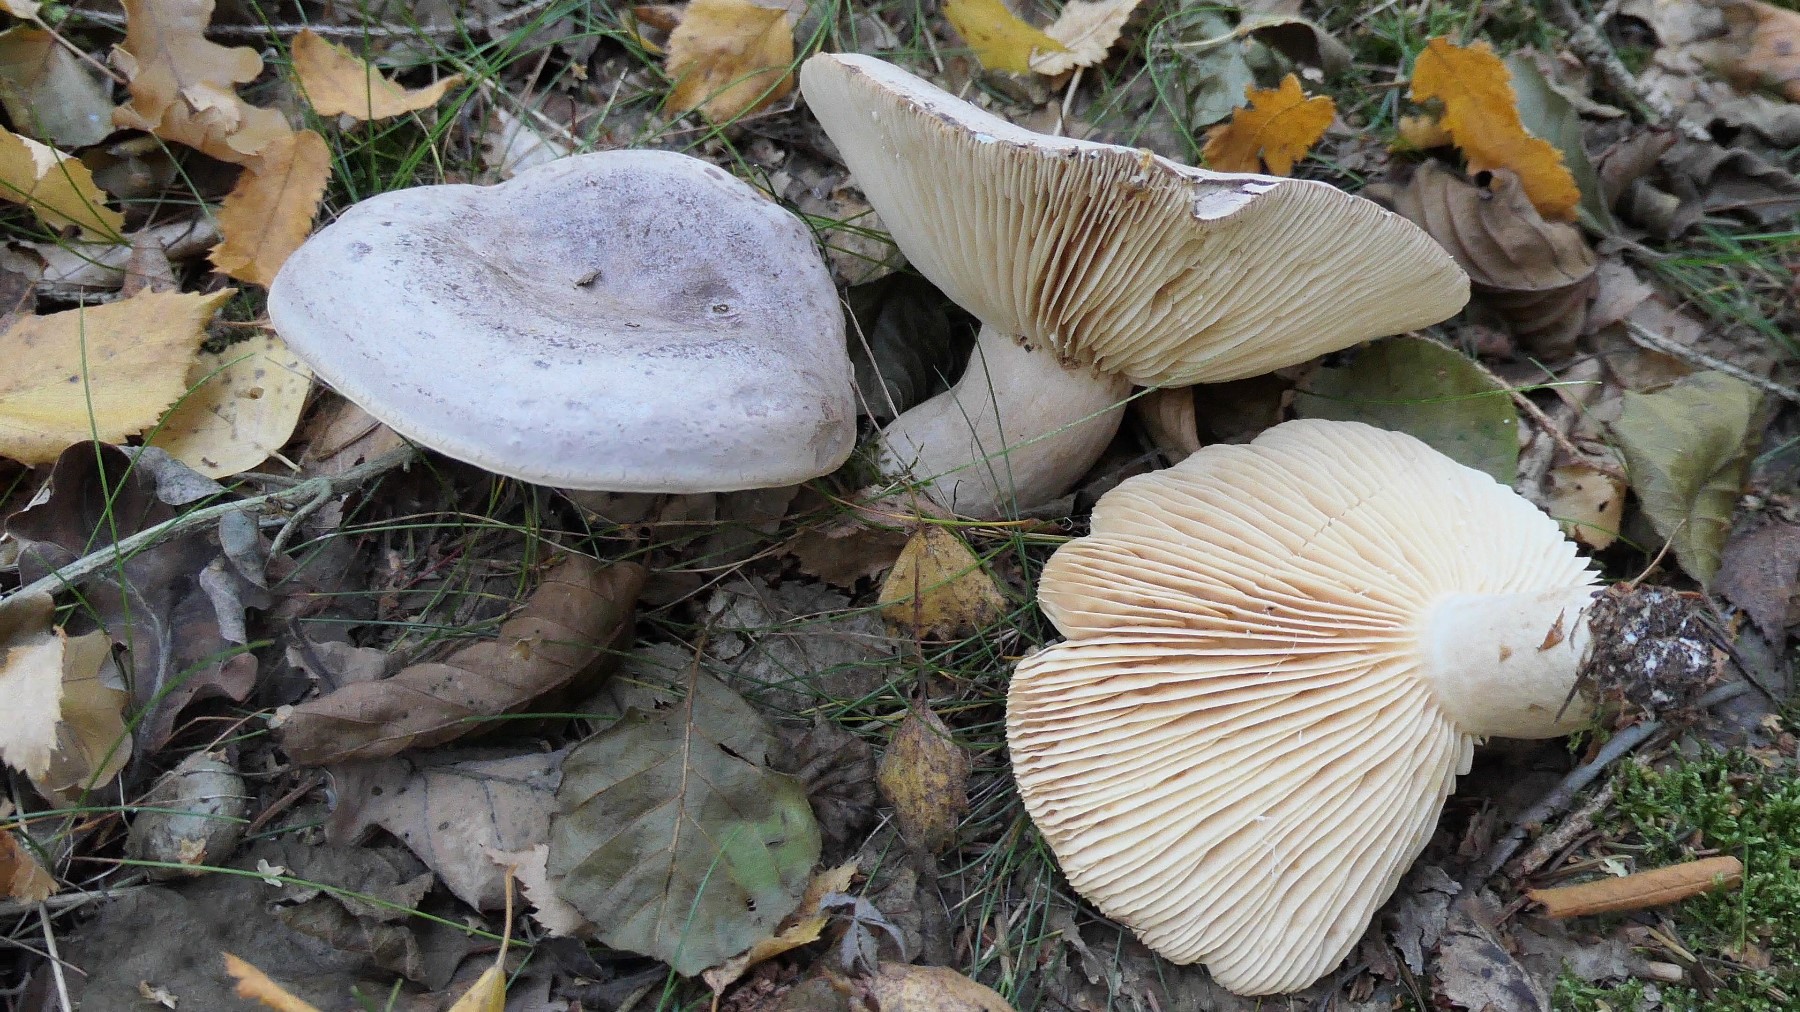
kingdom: Fungi
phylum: Basidiomycota
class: Agaricomycetes
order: Russulales
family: Russulaceae
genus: Lactarius
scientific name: Lactarius flexuosus
